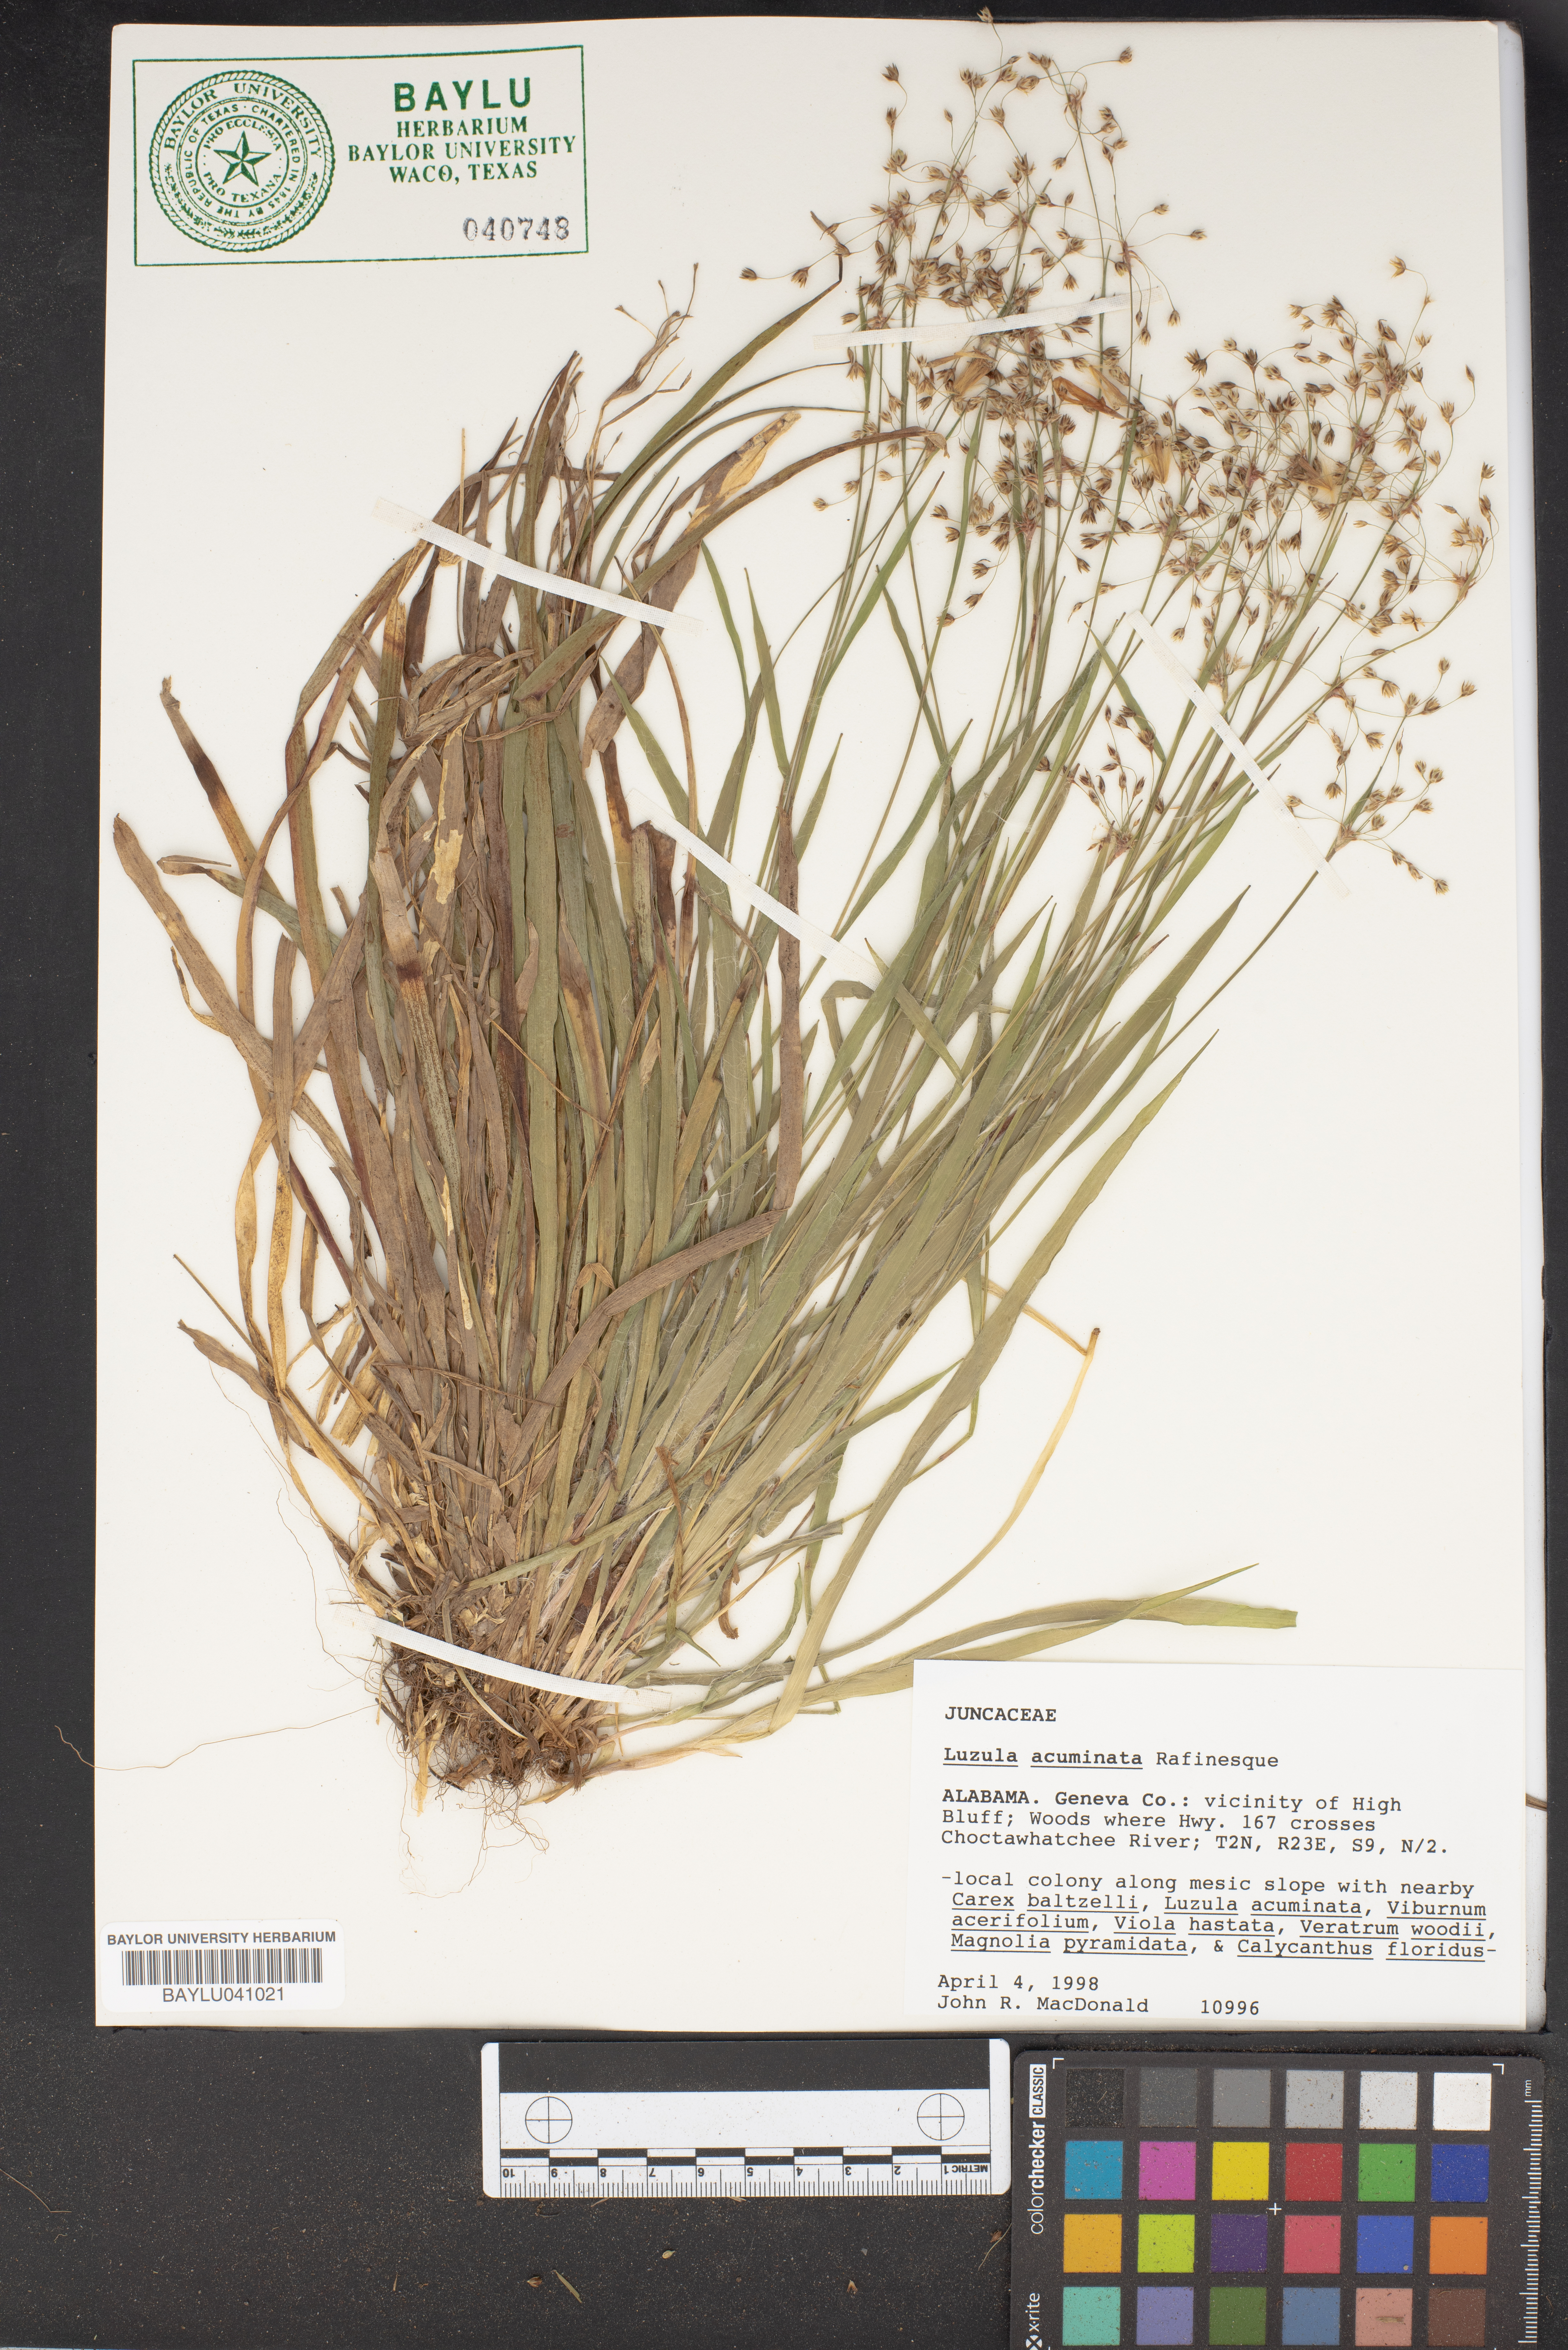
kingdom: Plantae
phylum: Tracheophyta
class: Liliopsida
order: Poales
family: Juncaceae
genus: Luzula
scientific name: Luzula acuminata
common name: Hairy woodrush
